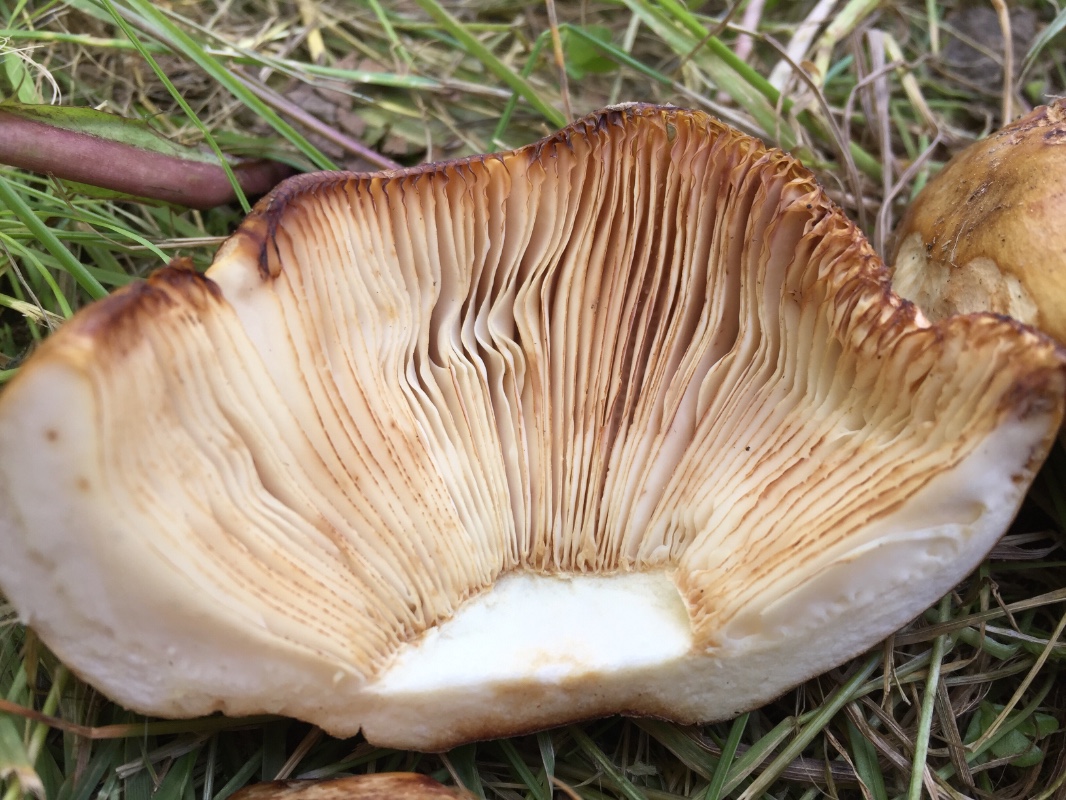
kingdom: Fungi
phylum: Basidiomycota
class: Agaricomycetes
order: Russulales
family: Russulaceae
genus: Russula
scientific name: Russula foetens
